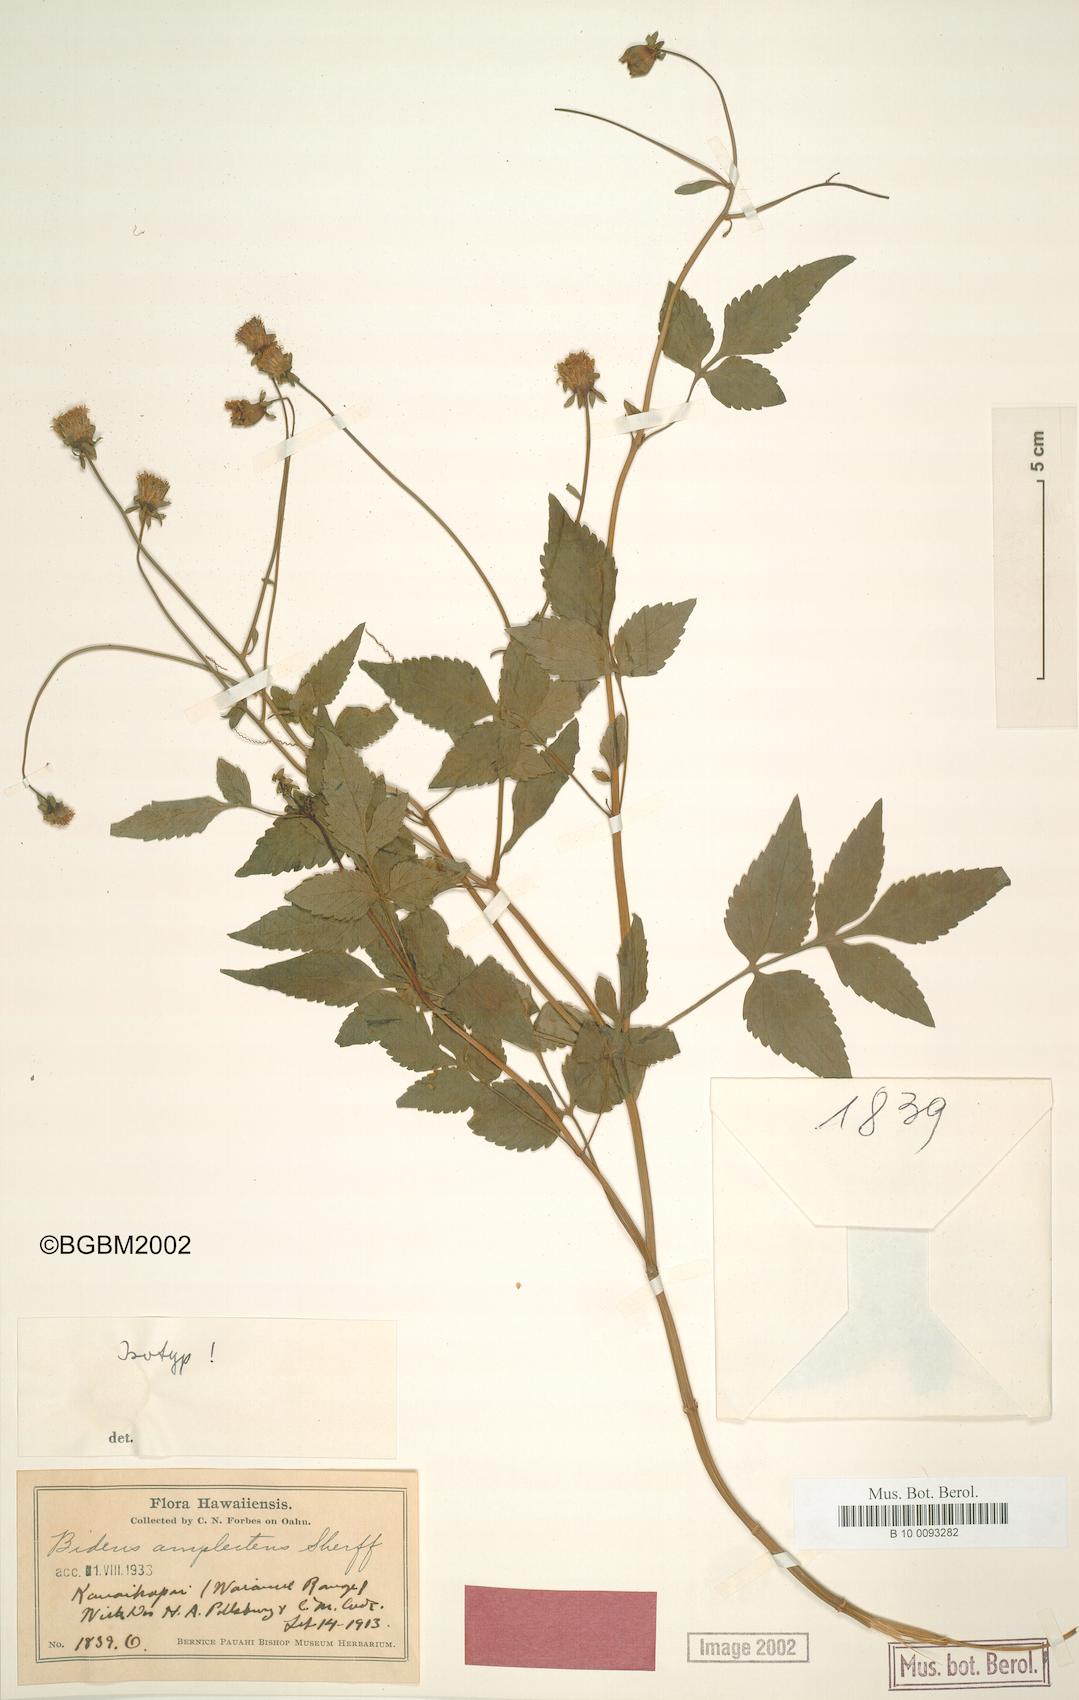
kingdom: Plantae
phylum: Tracheophyta
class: Magnoliopsida
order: Asterales
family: Asteraceae
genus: Bidens
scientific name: Bidens amplectens
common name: Koko'olau
